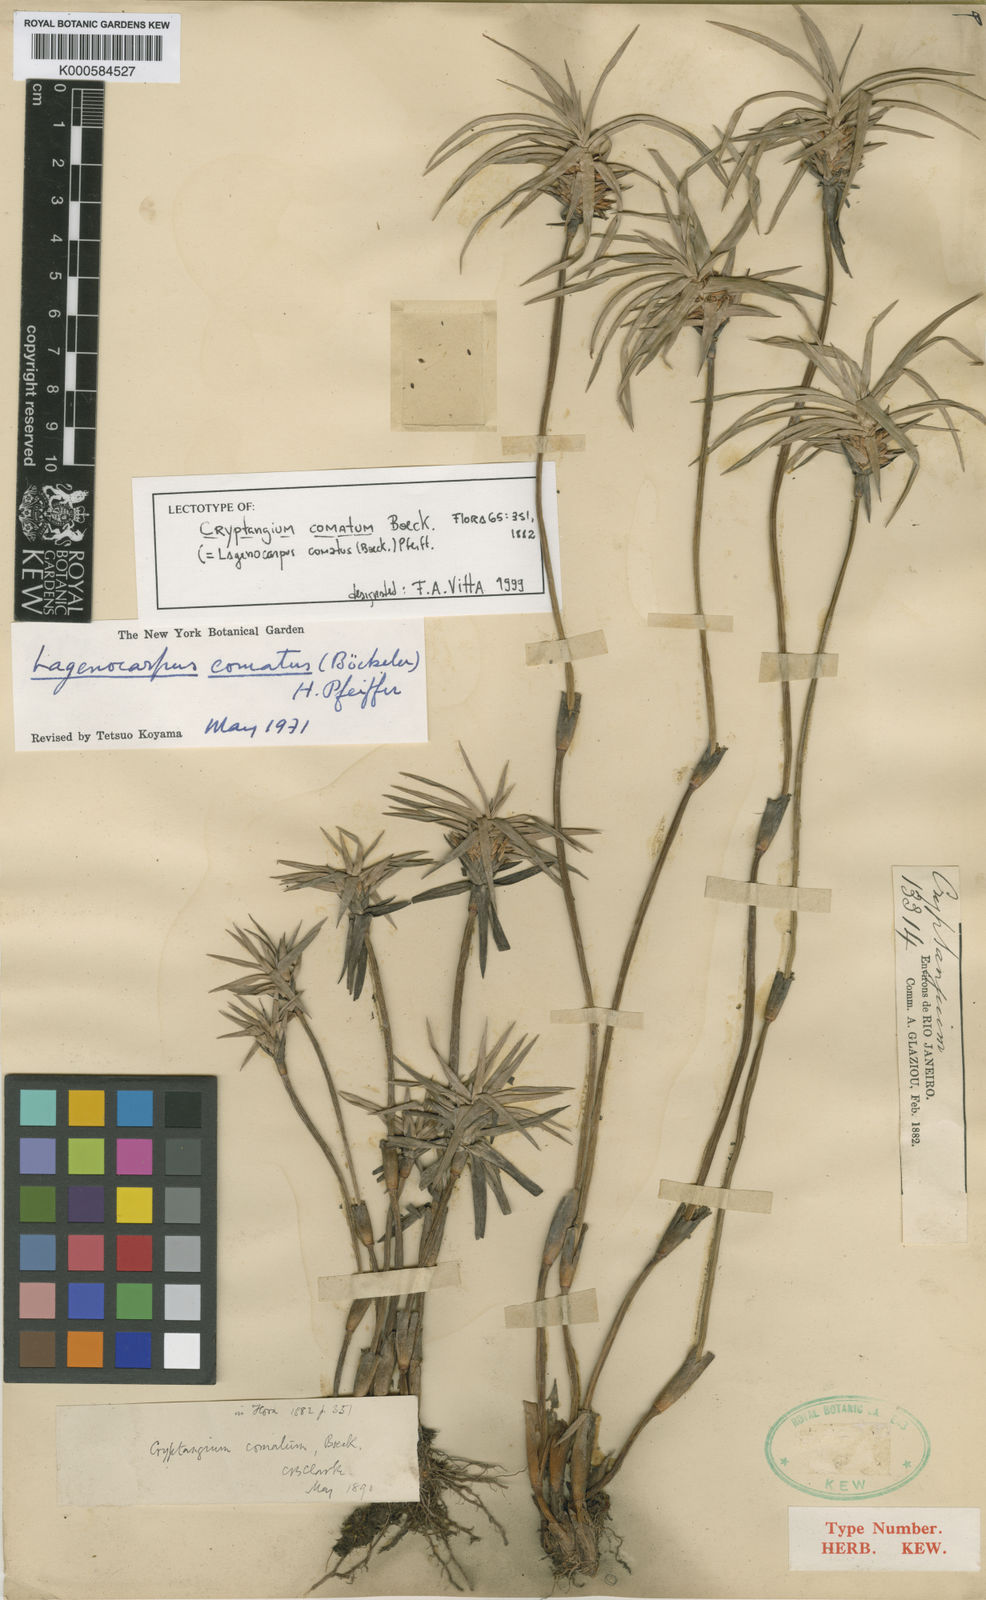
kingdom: Plantae
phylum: Tracheophyta
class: Liliopsida
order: Poales
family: Cyperaceae
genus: Krenakia
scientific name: Krenakia comata
